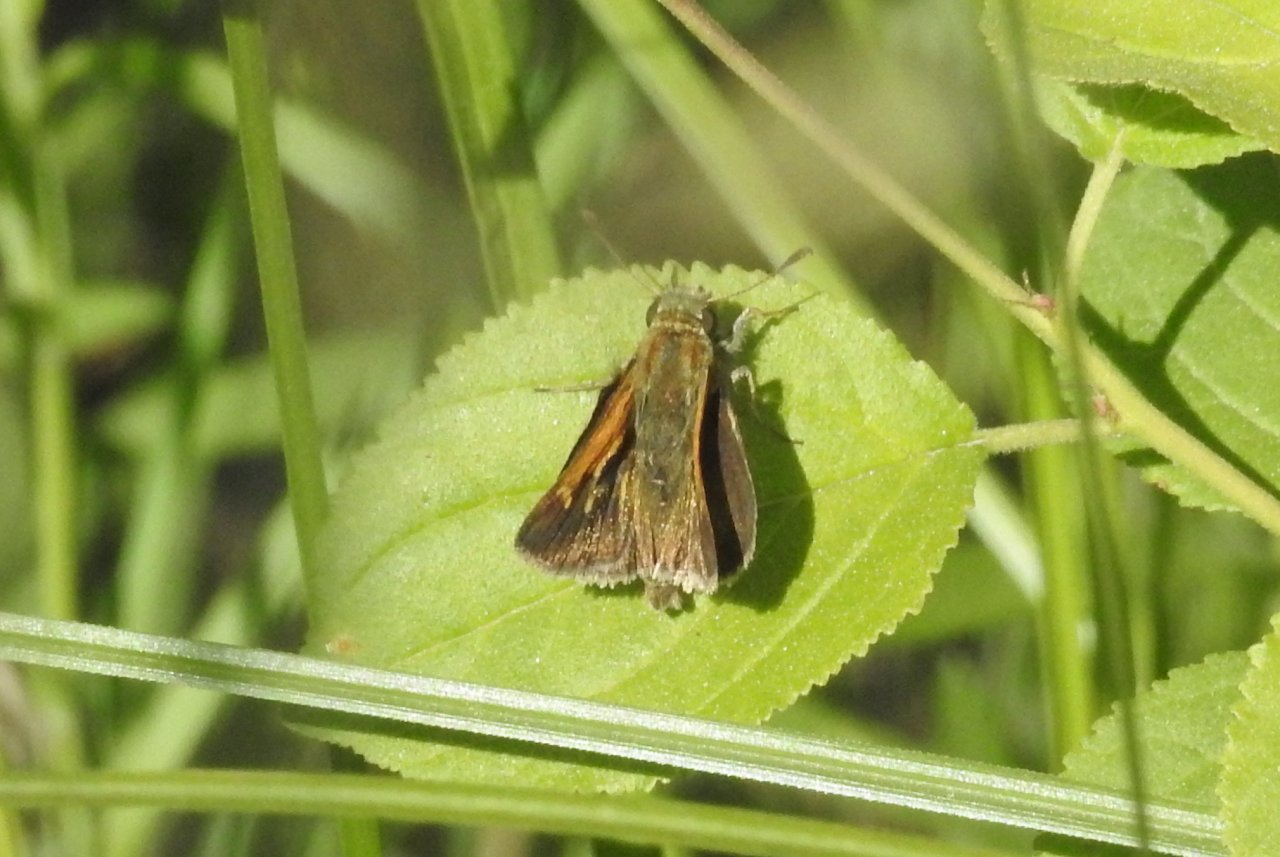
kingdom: Animalia
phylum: Arthropoda
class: Insecta
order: Lepidoptera
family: Hesperiidae
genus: Polites
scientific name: Polites themistocles
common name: Tawny-edged Skipper
